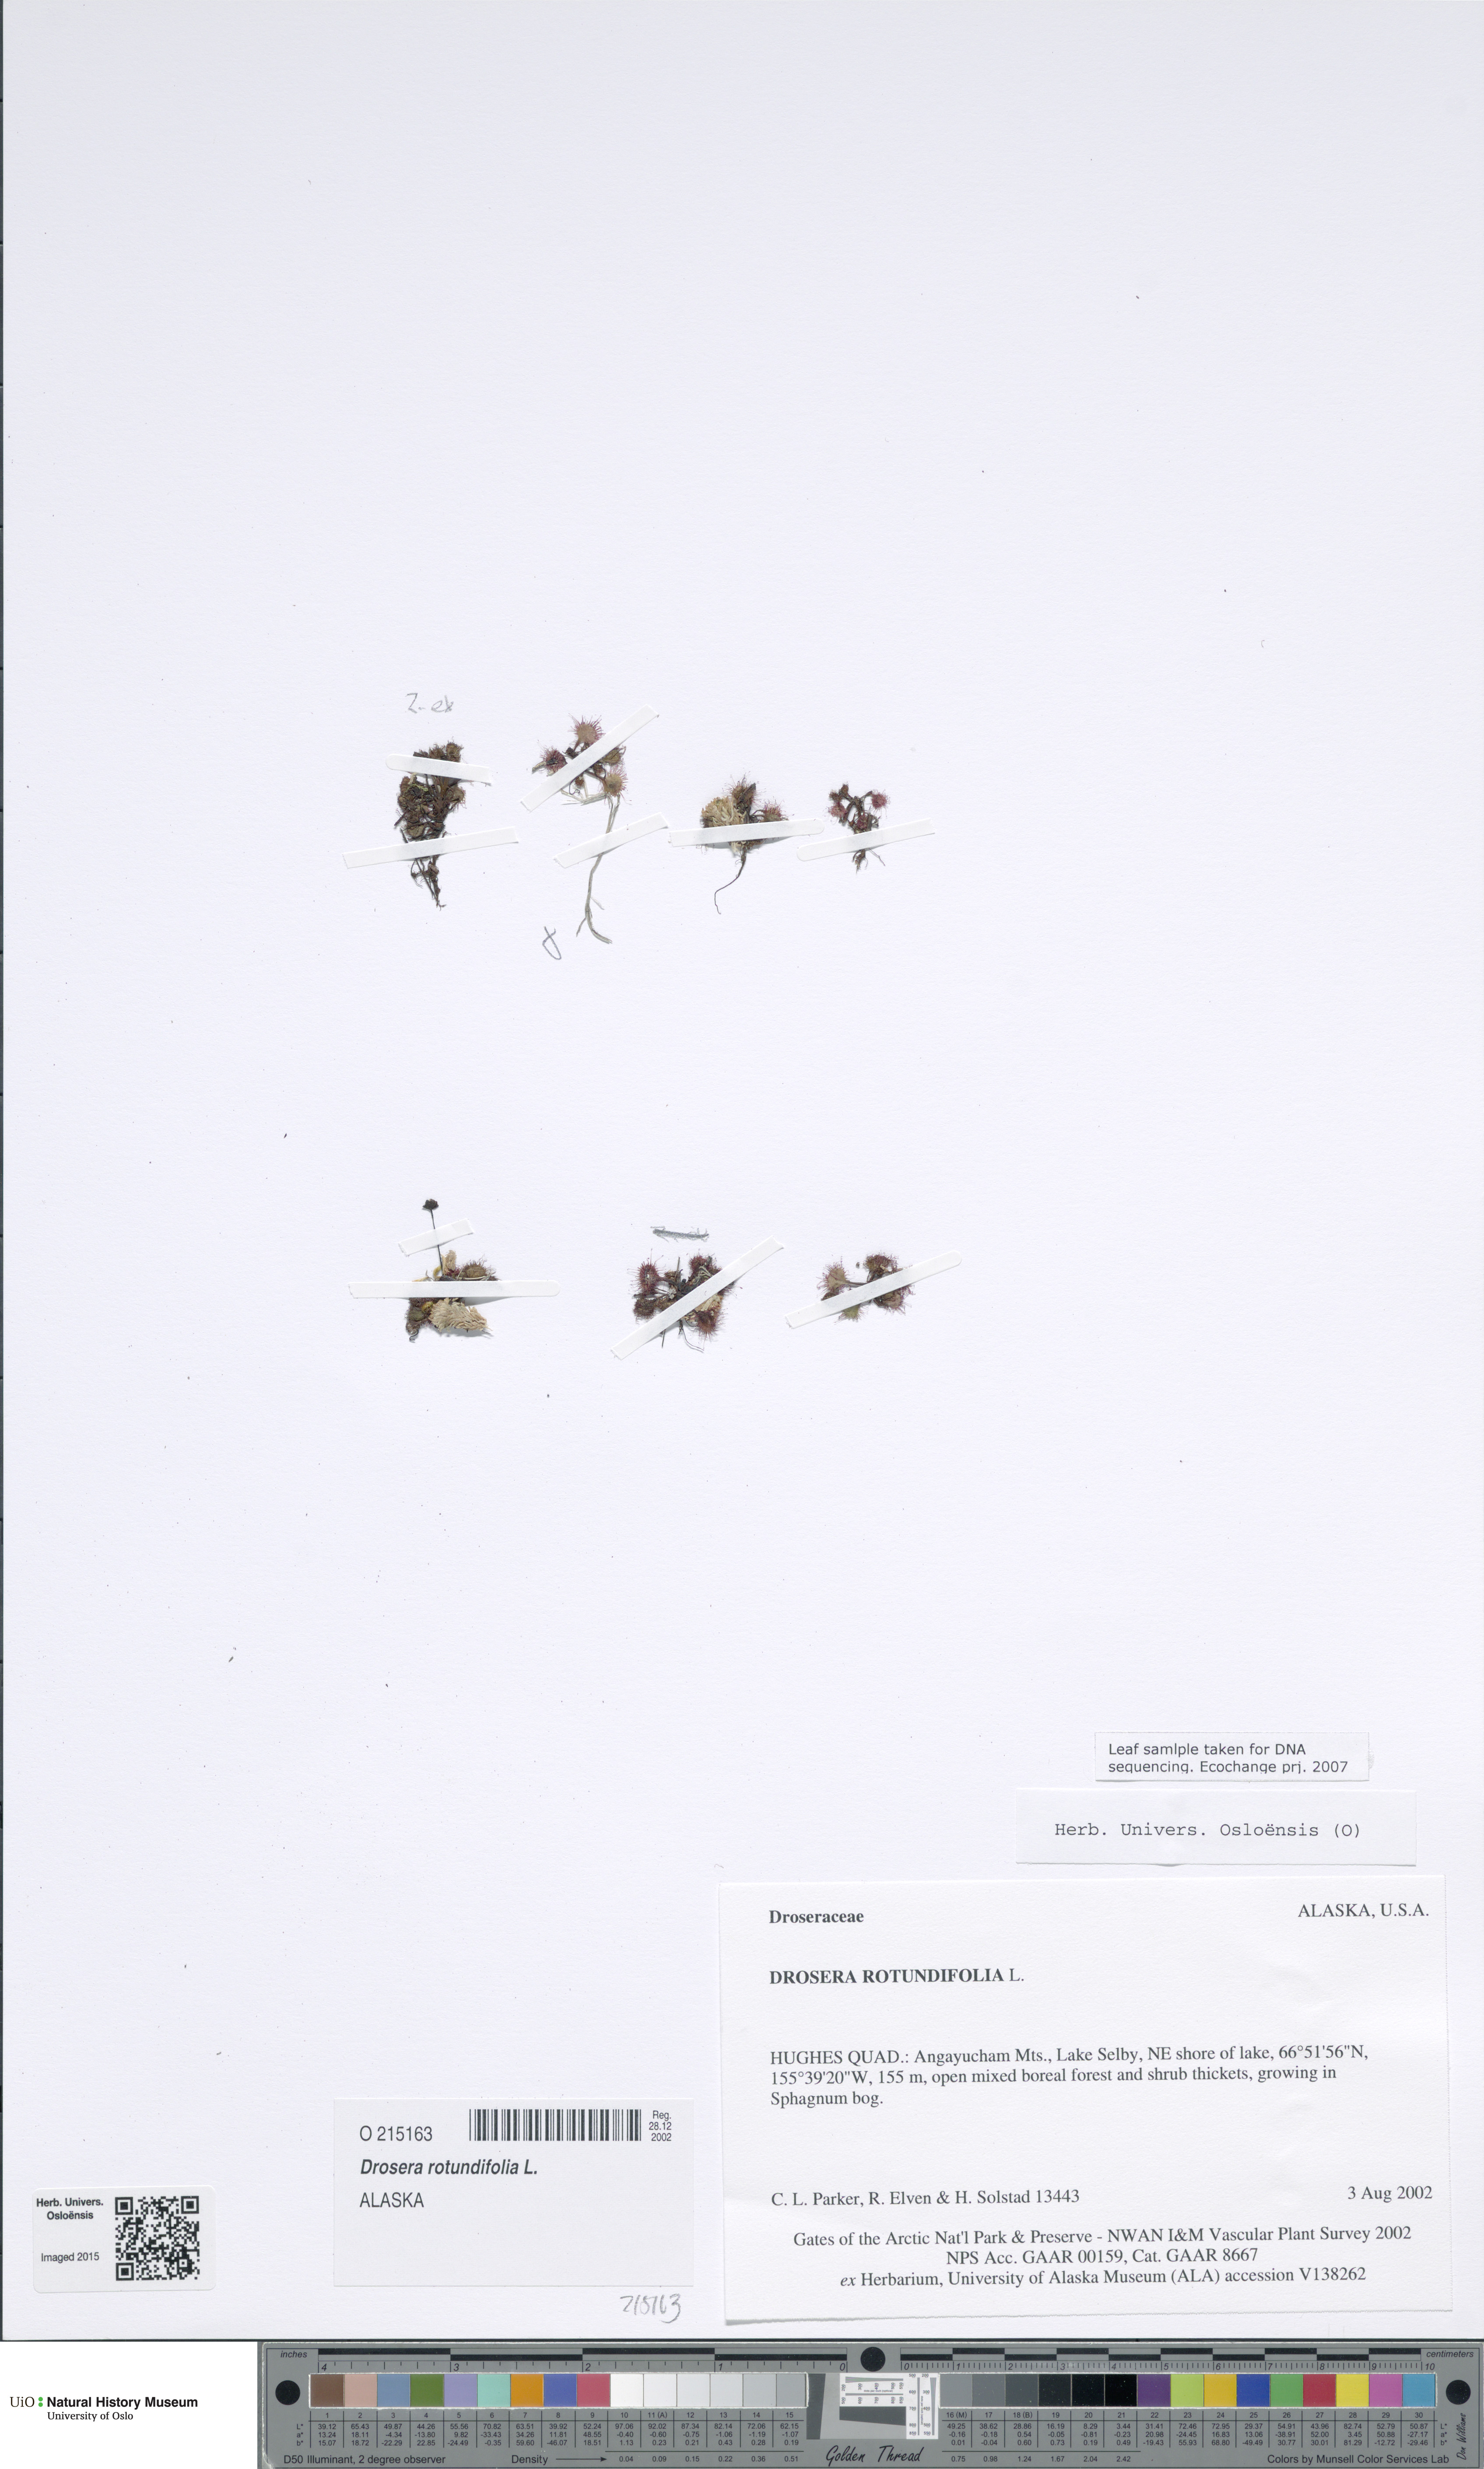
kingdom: Plantae
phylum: Tracheophyta
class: Magnoliopsida
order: Caryophyllales
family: Droseraceae
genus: Drosera
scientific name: Drosera rotundifolia
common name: Round-leaved sundew
